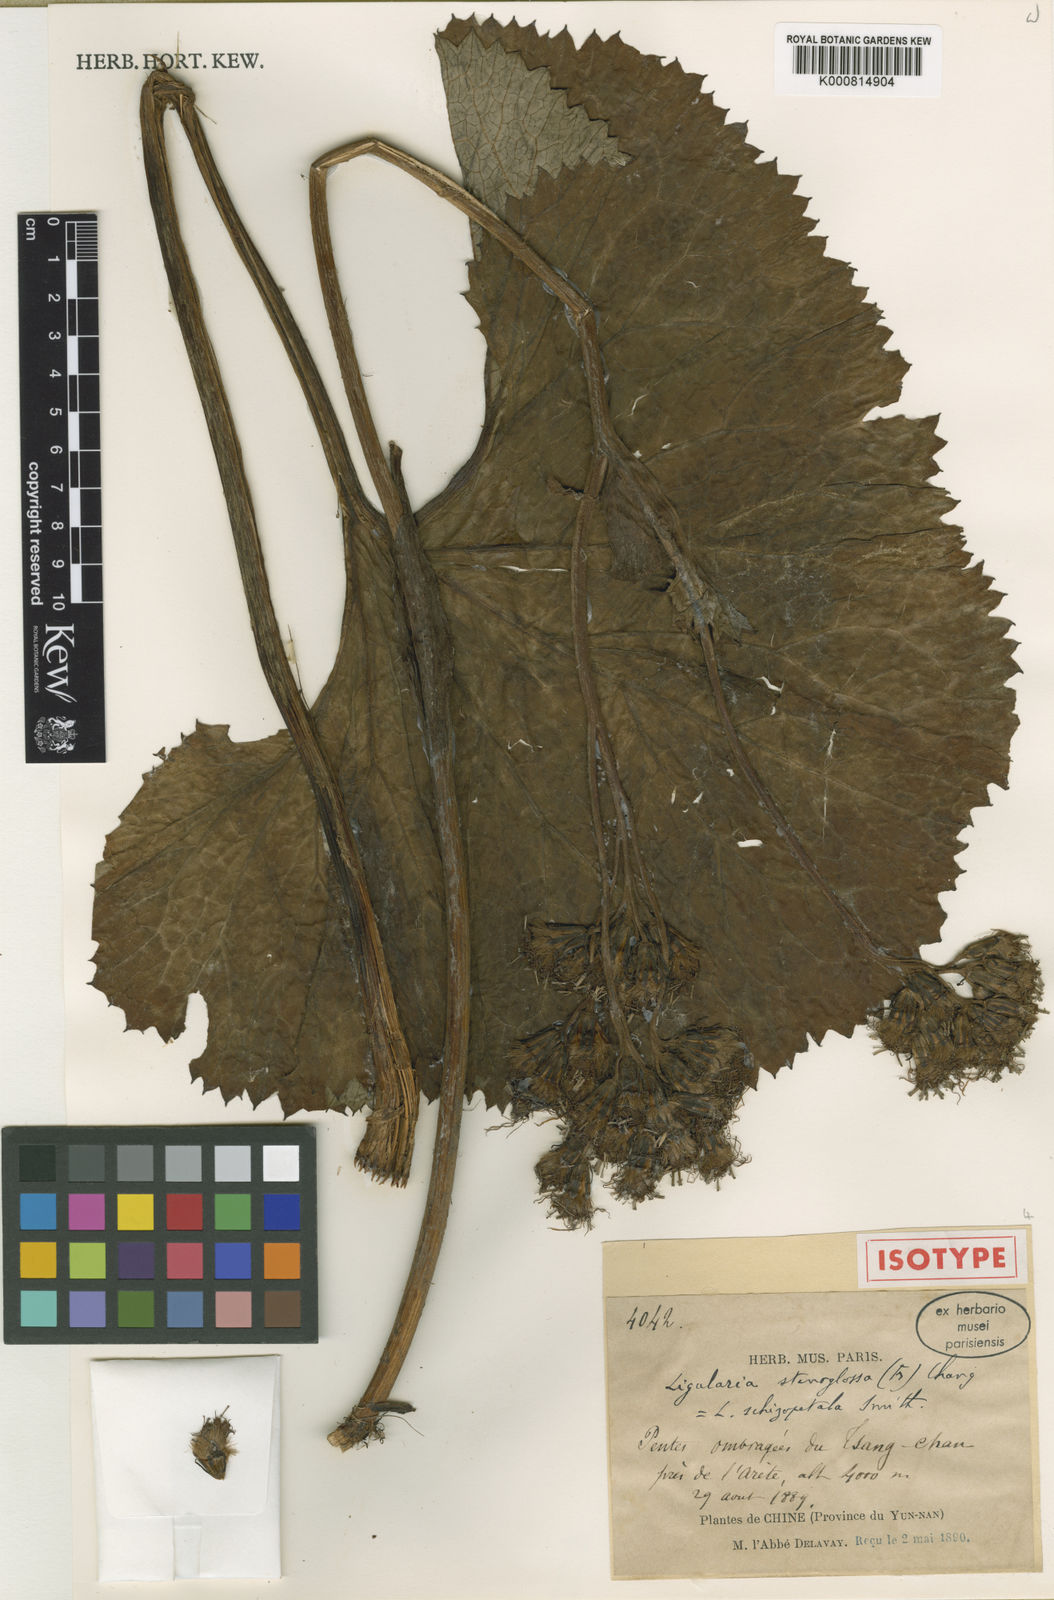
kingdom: Plantae
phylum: Tracheophyta
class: Magnoliopsida
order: Asterales
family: Asteraceae
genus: Ligularia
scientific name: Ligularia stenoglossa
